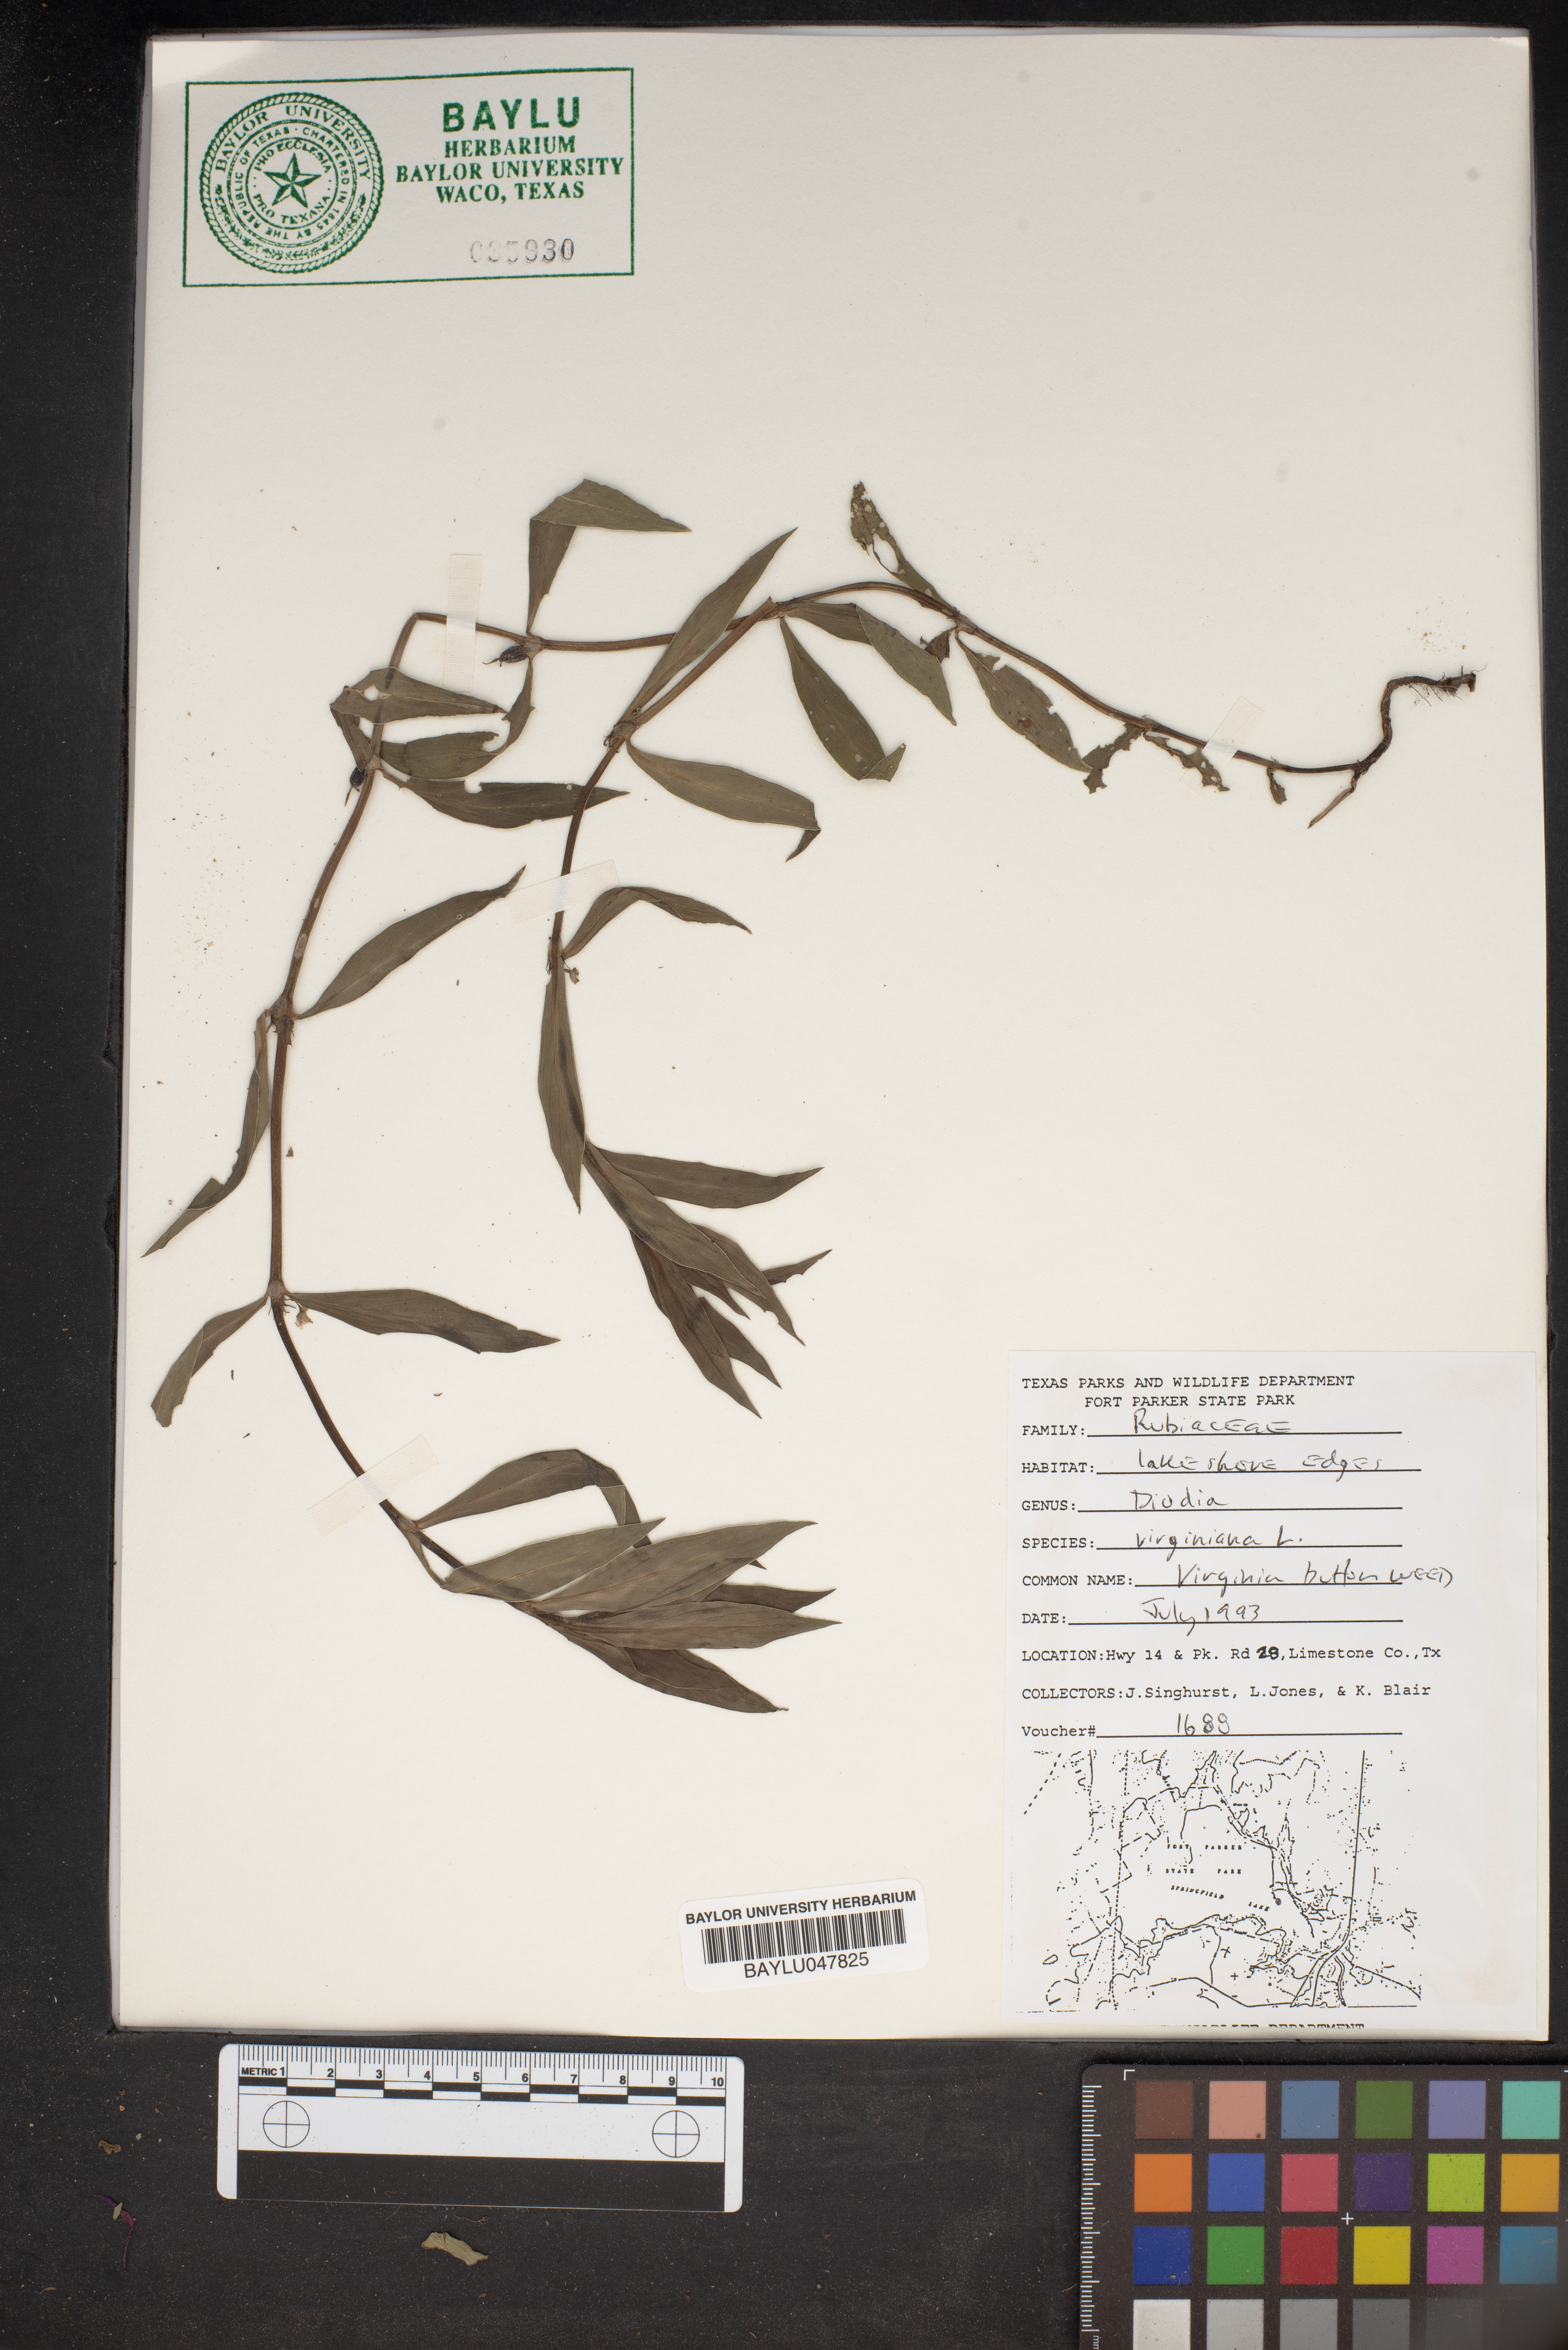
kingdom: Plantae
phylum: Tracheophyta
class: Magnoliopsida
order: Gentianales
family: Rubiaceae
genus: Diodia
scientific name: Diodia virginiana
